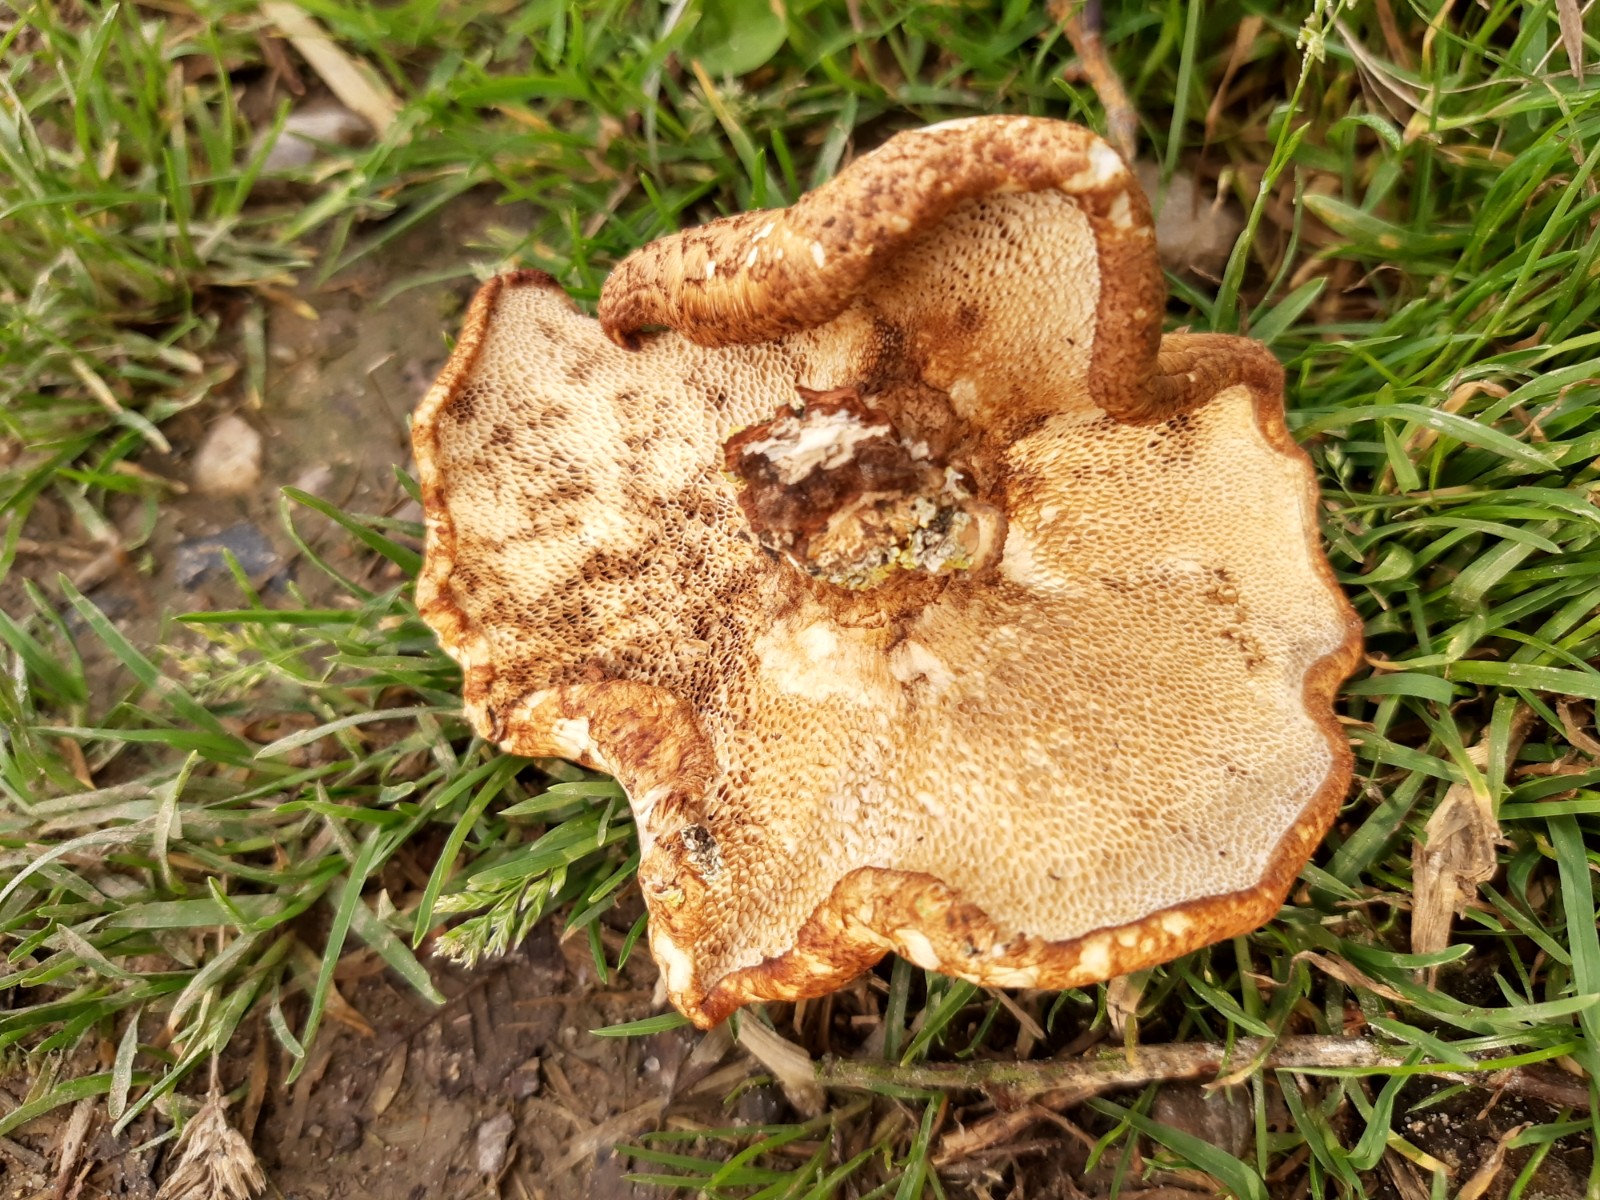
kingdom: Fungi
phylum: Basidiomycota
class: Agaricomycetes
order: Polyporales
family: Polyporaceae
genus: Polyporus
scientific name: Polyporus tuberaster
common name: knoldet stilkporesvamp
